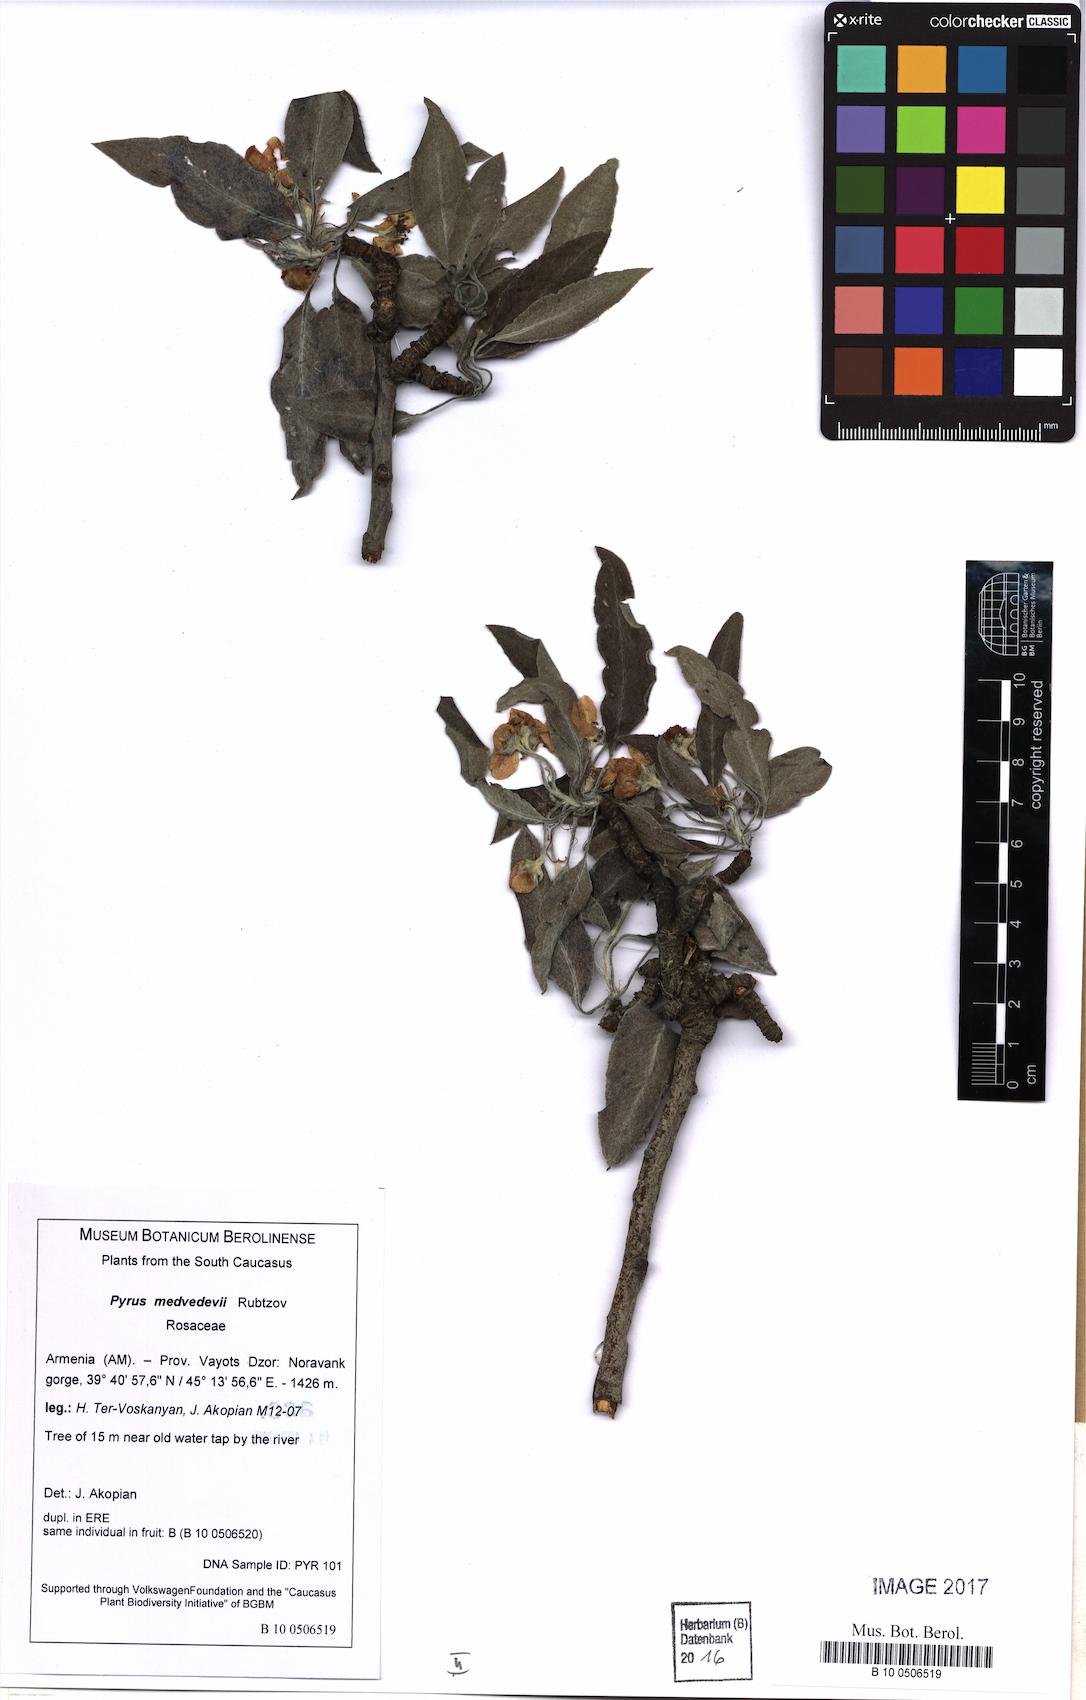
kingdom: Plantae
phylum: Tracheophyta
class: Magnoliopsida
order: Rosales
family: Rosaceae
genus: Pyrus
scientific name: Pyrus medvedevii
